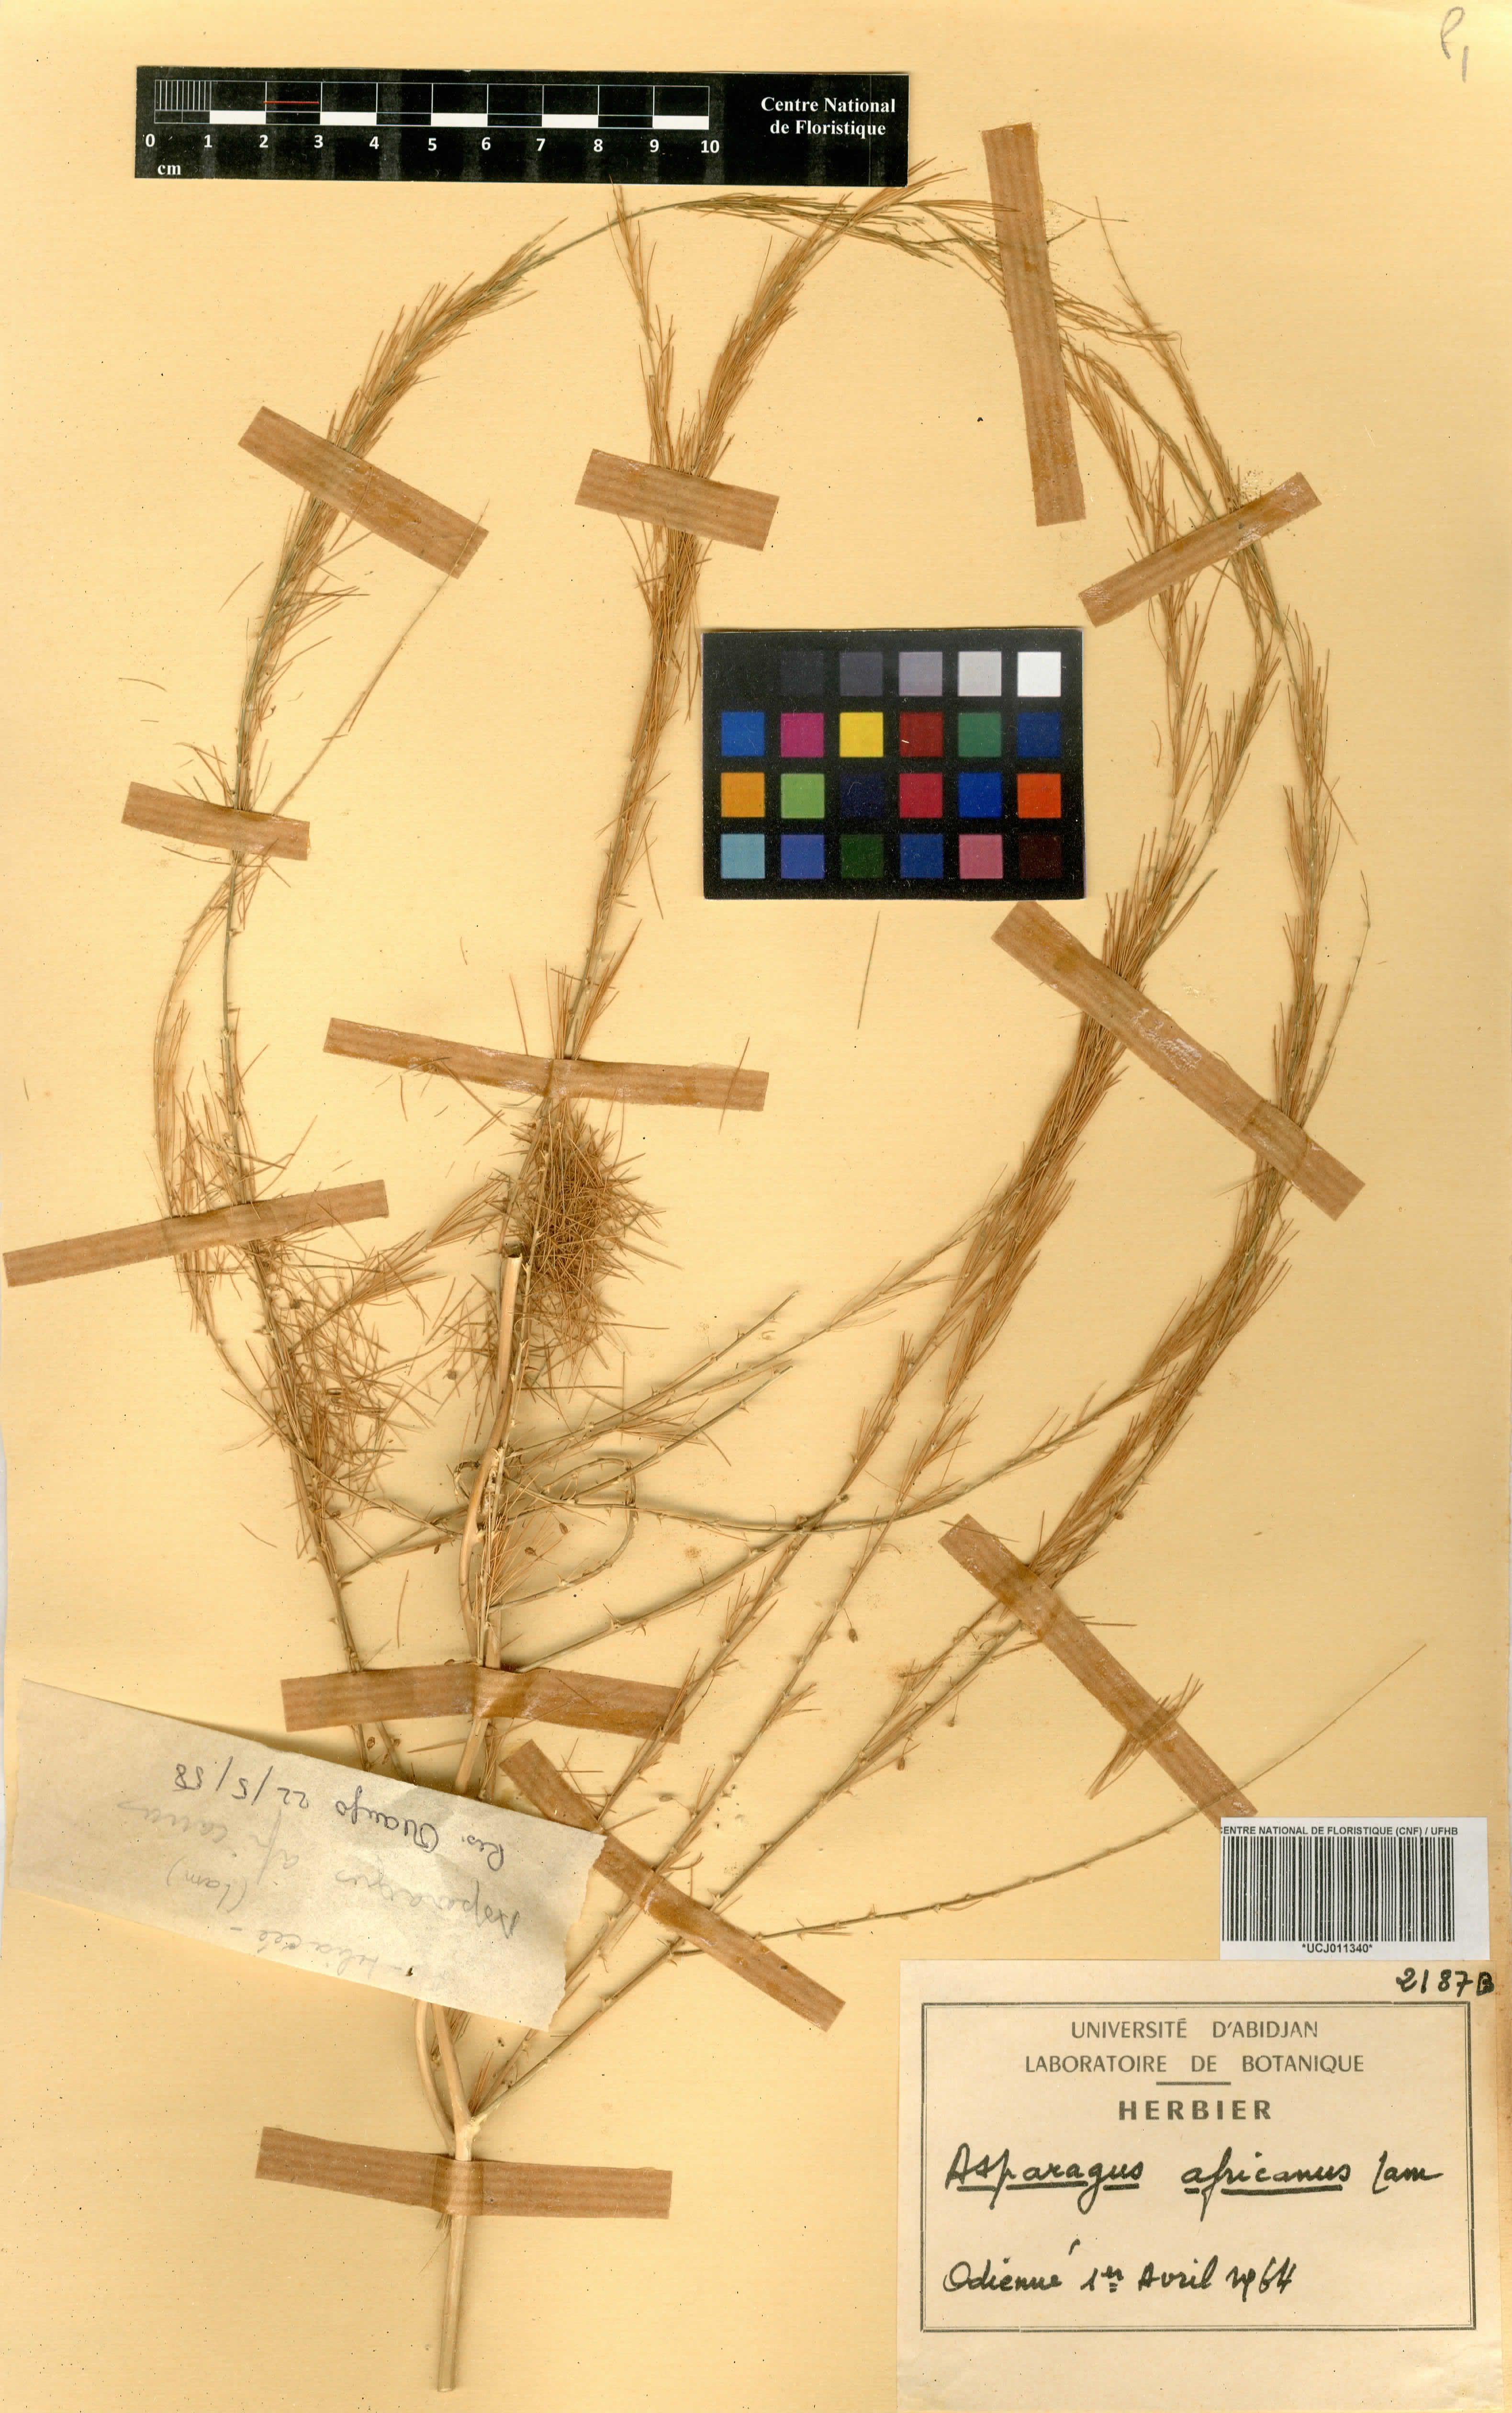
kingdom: Plantae
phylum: Tracheophyta
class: Liliopsida
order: Asparagales
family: Asparagaceae
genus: Asparagus
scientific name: Asparagus africanus
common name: Asparagus-fern
